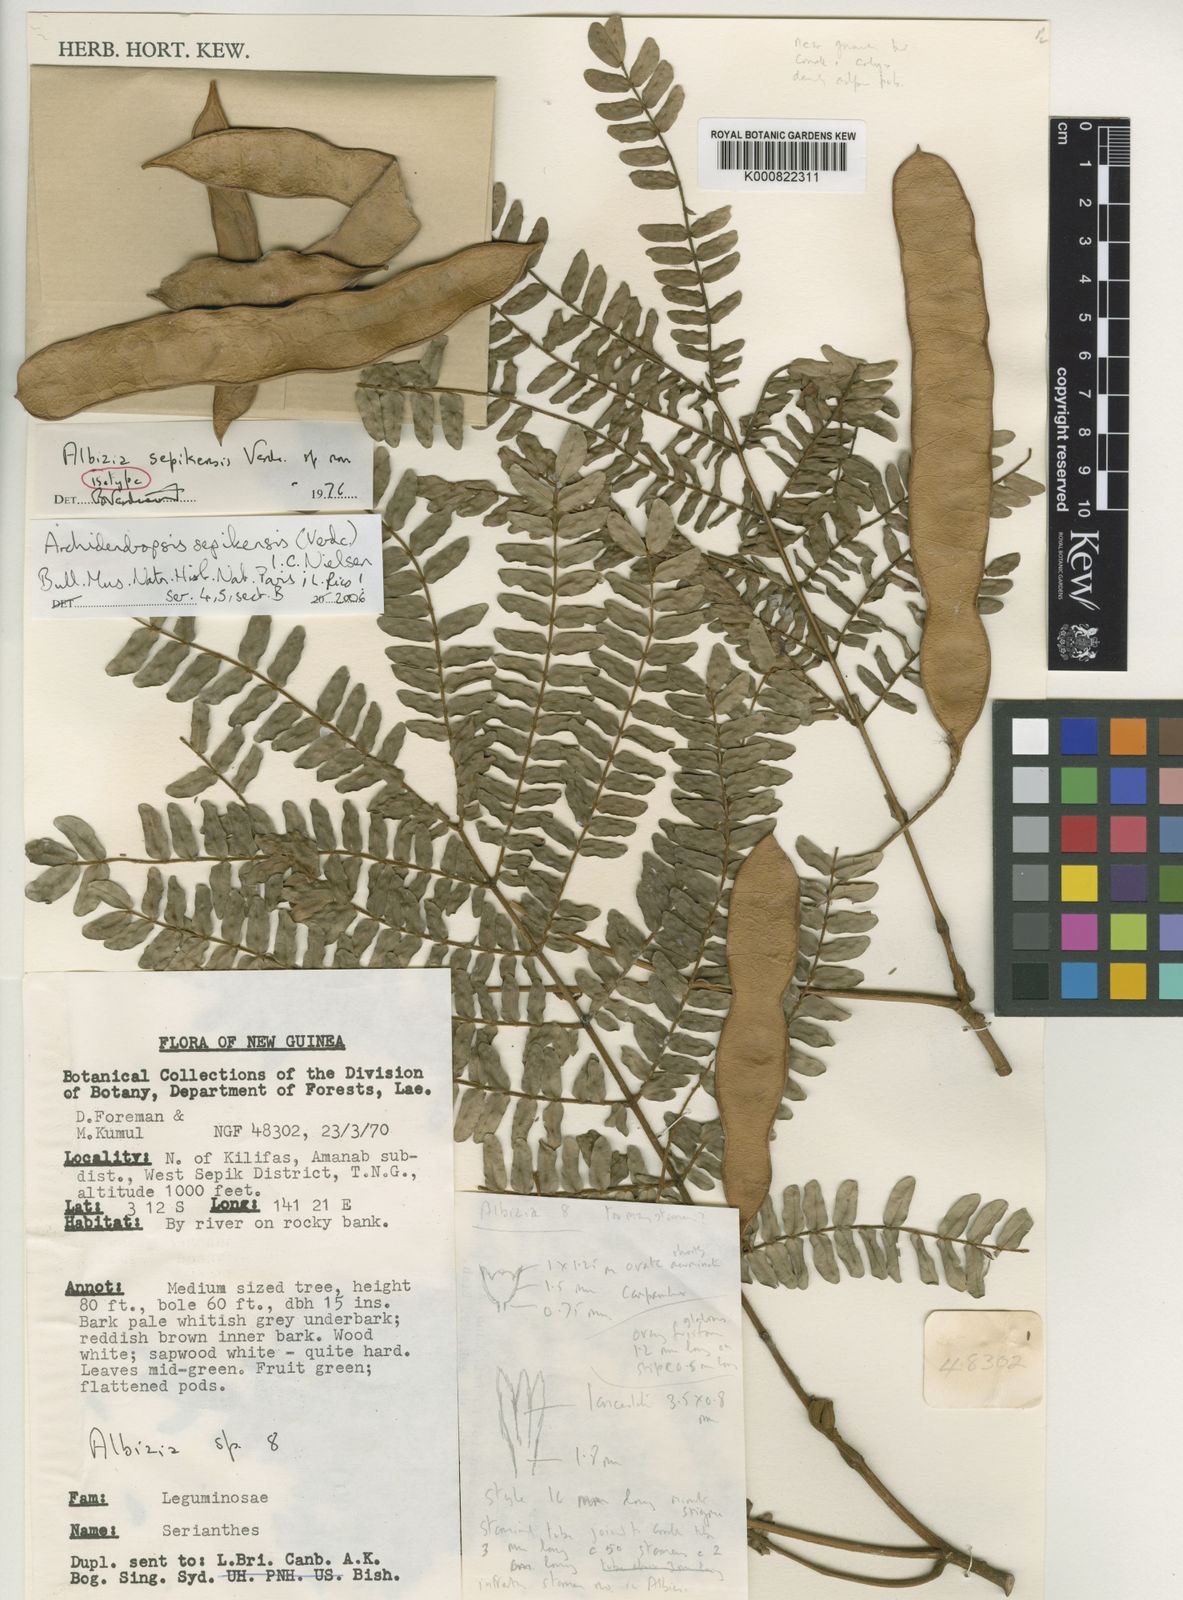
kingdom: Plantae
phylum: Tracheophyta
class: Magnoliopsida
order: Fabales
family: Fabaceae
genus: Archidendropsis
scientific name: Archidendropsis sepikensis
